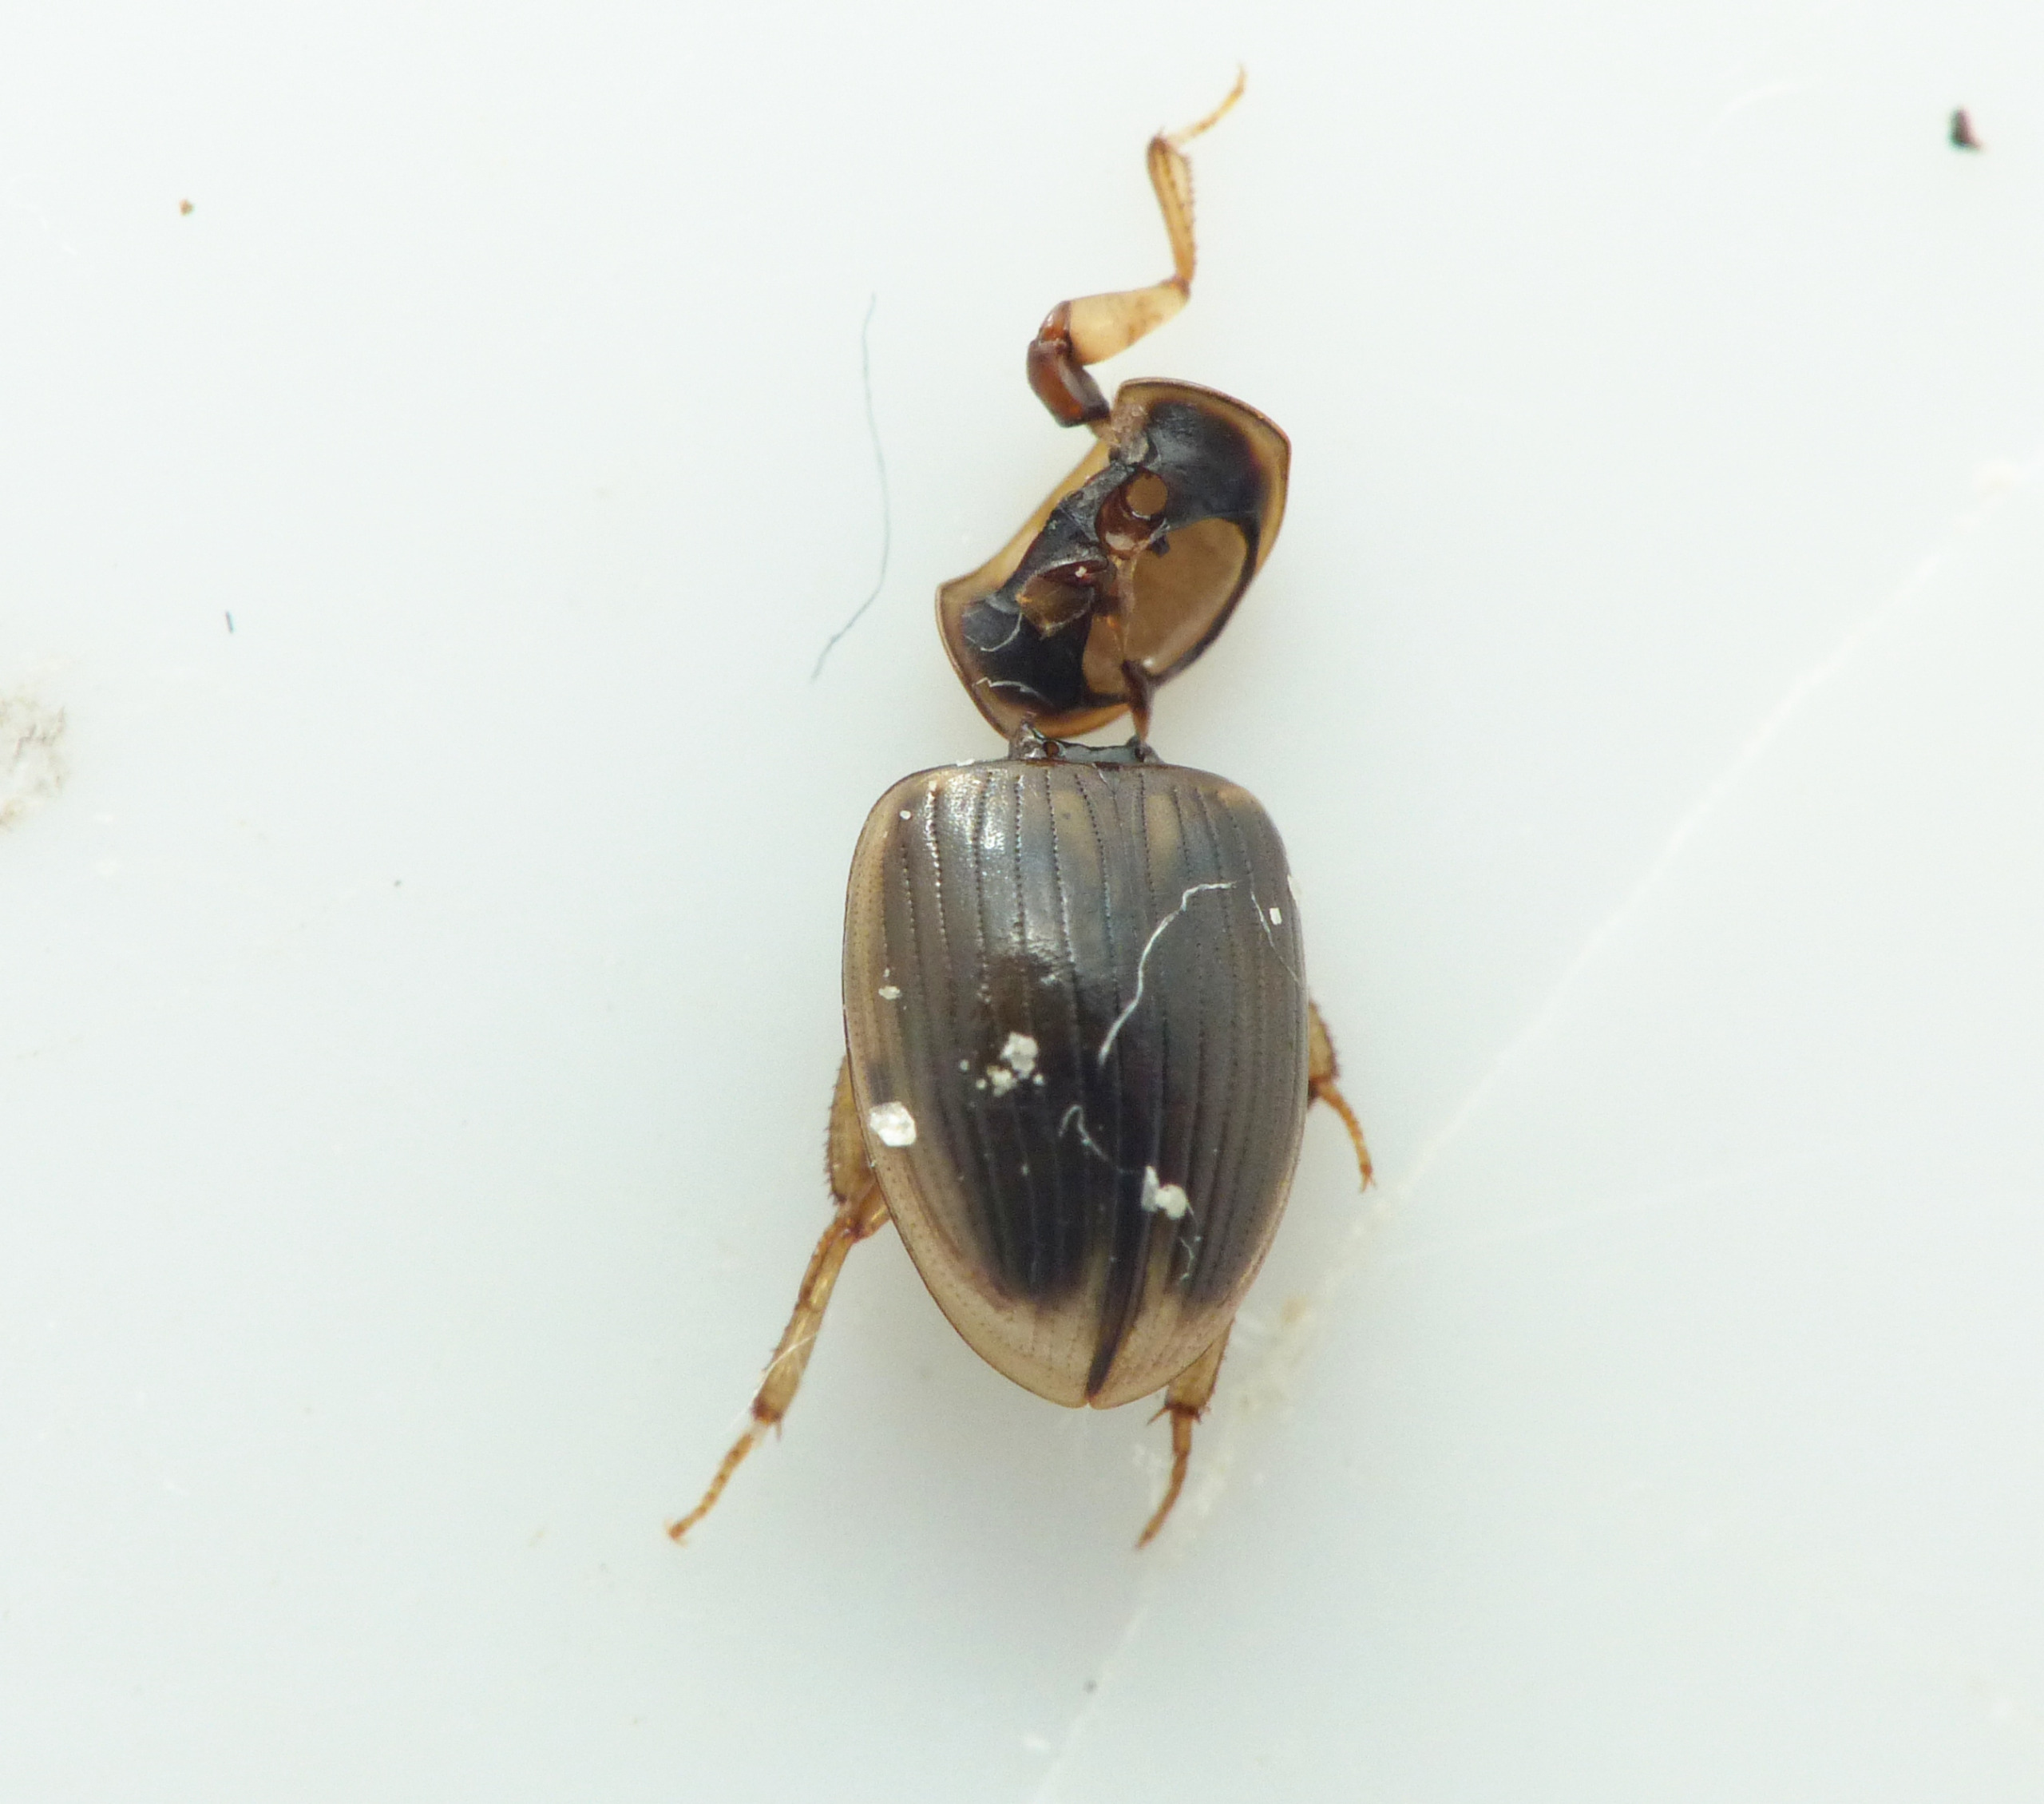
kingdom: Animalia
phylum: Arthropoda
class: Insecta
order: Coleoptera
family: Hydrophilidae
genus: Cercyon
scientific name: Cercyon laminatus
